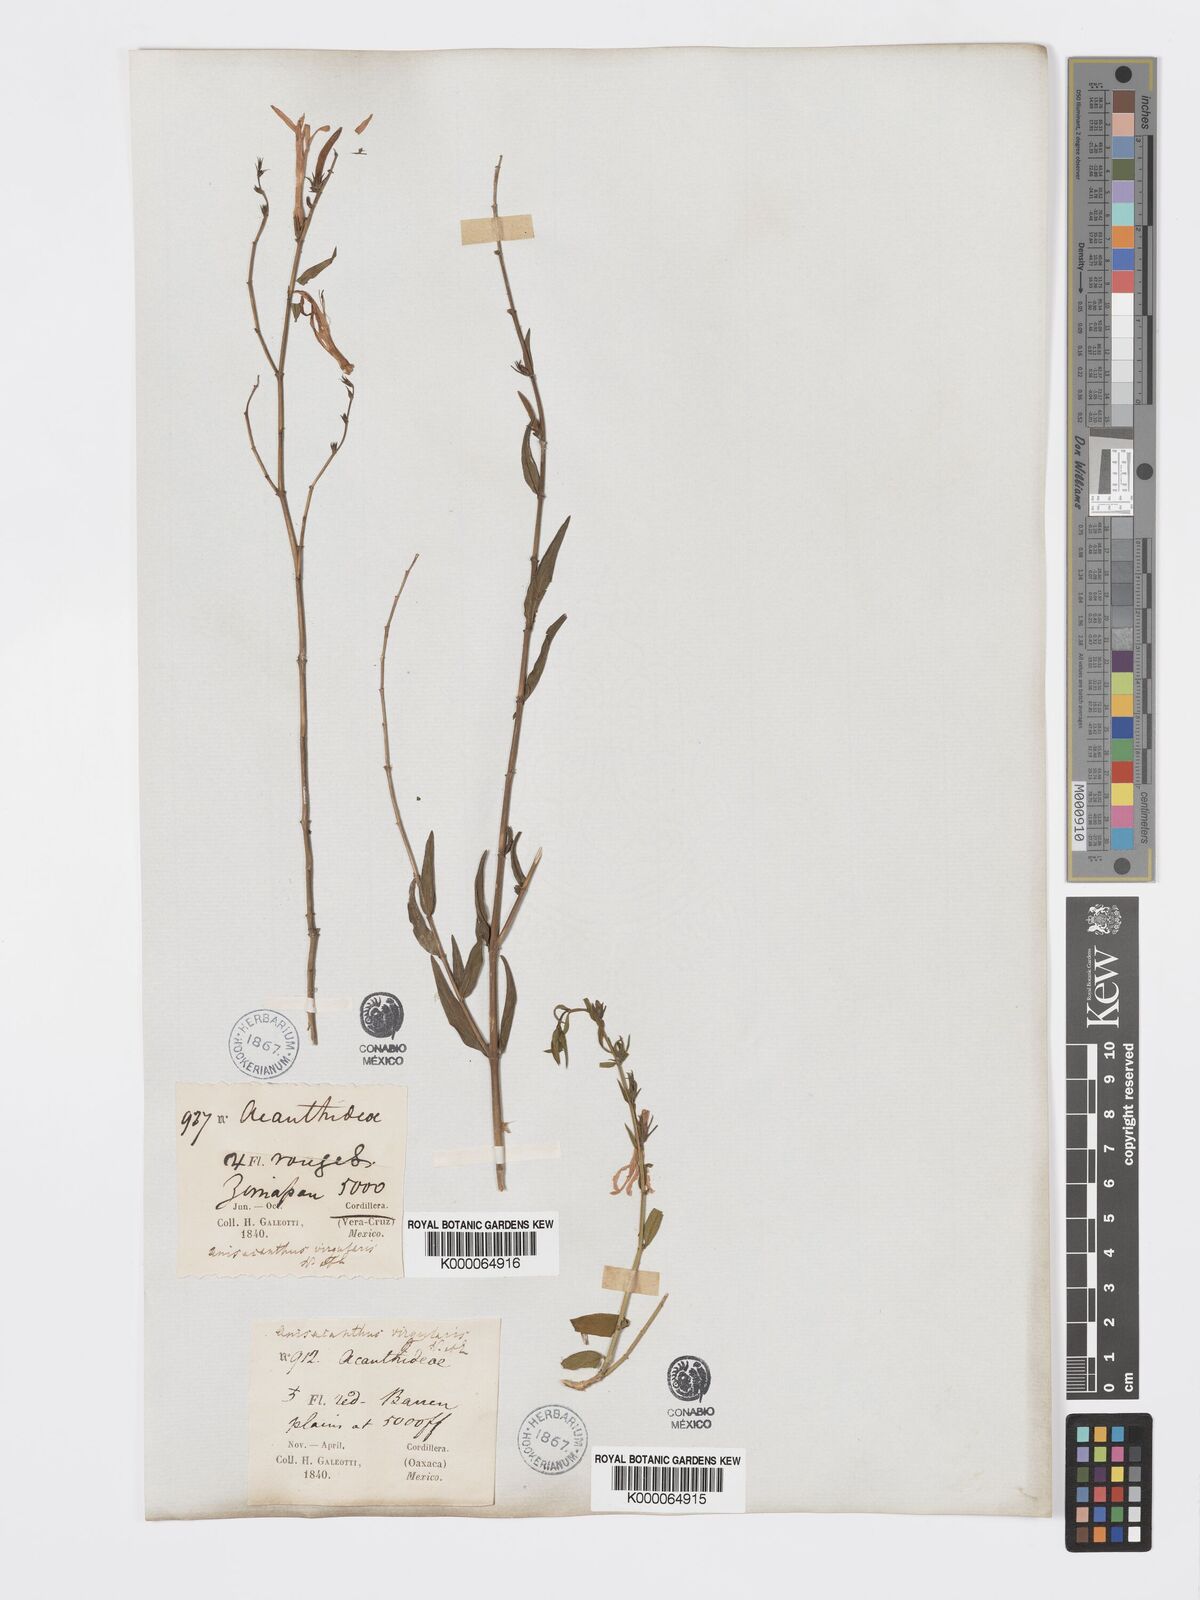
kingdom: Plantae
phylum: Tracheophyta
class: Magnoliopsida
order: Lamiales
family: Acanthaceae
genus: Anisacanthus
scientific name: Anisacanthus quadrifidus
